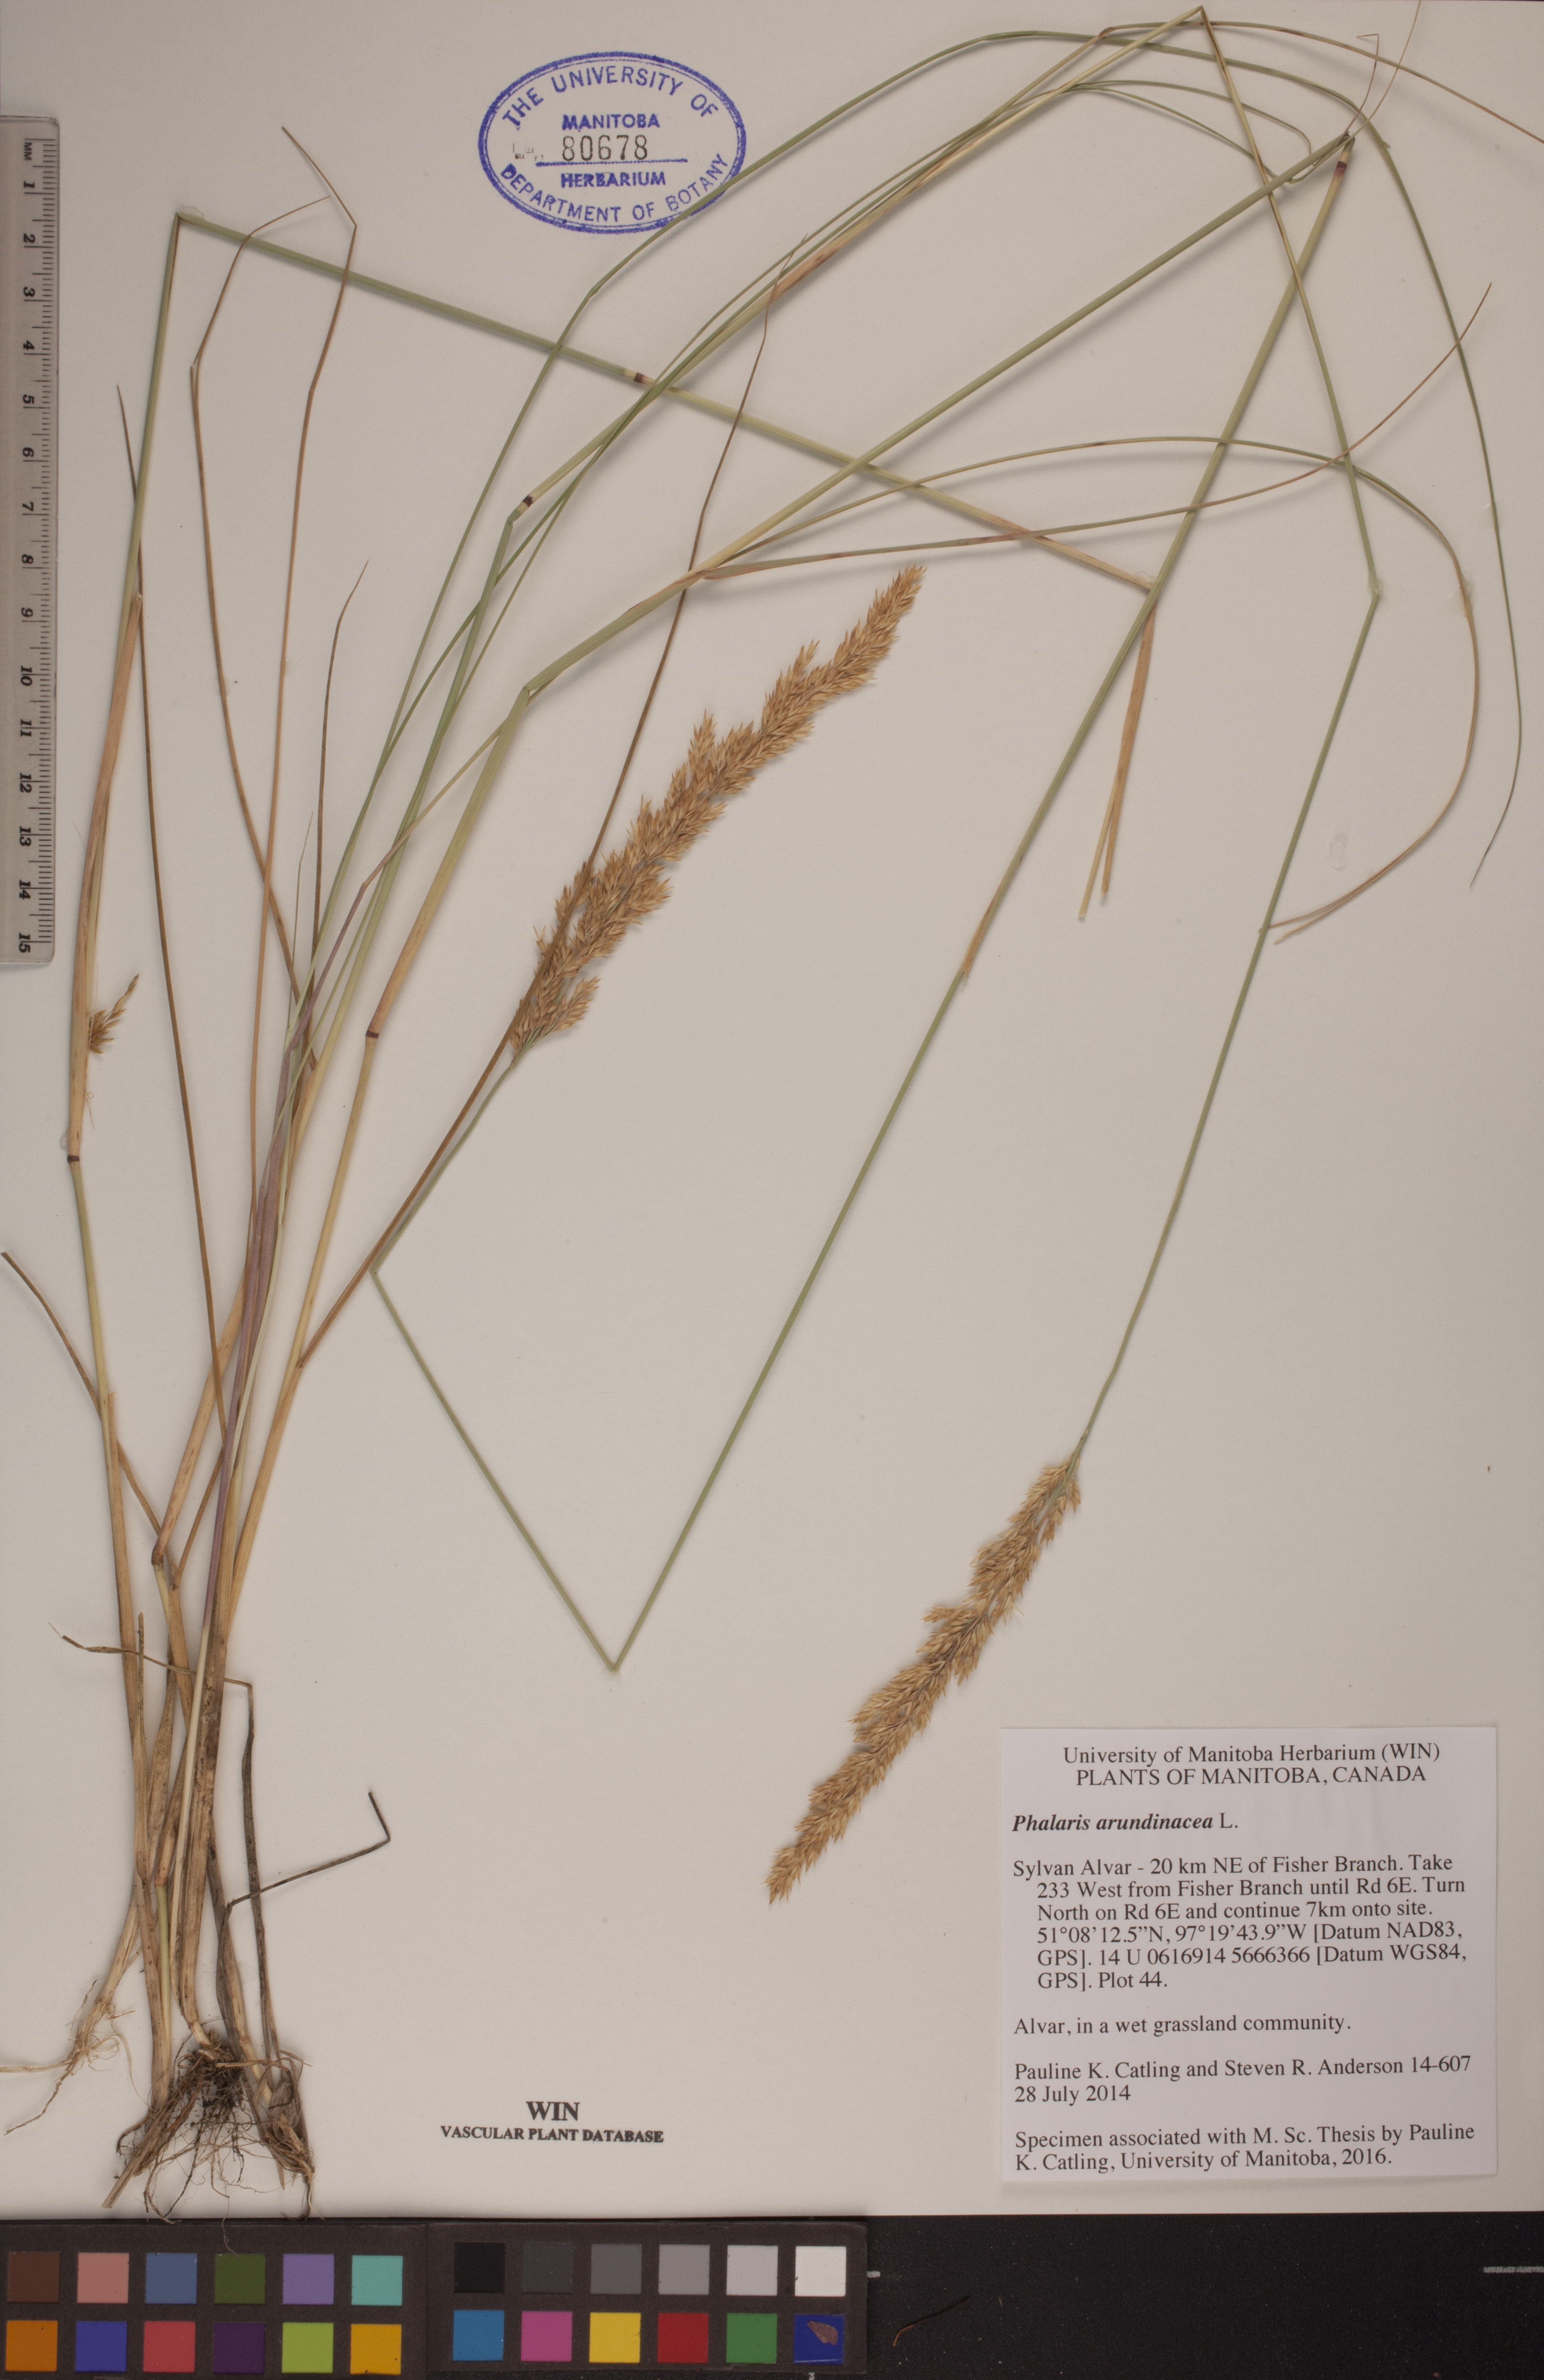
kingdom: Plantae
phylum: Tracheophyta
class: Liliopsida
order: Poales
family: Poaceae
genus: Phalaris
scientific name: Phalaris arundinacea
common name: Reed canary-grass
